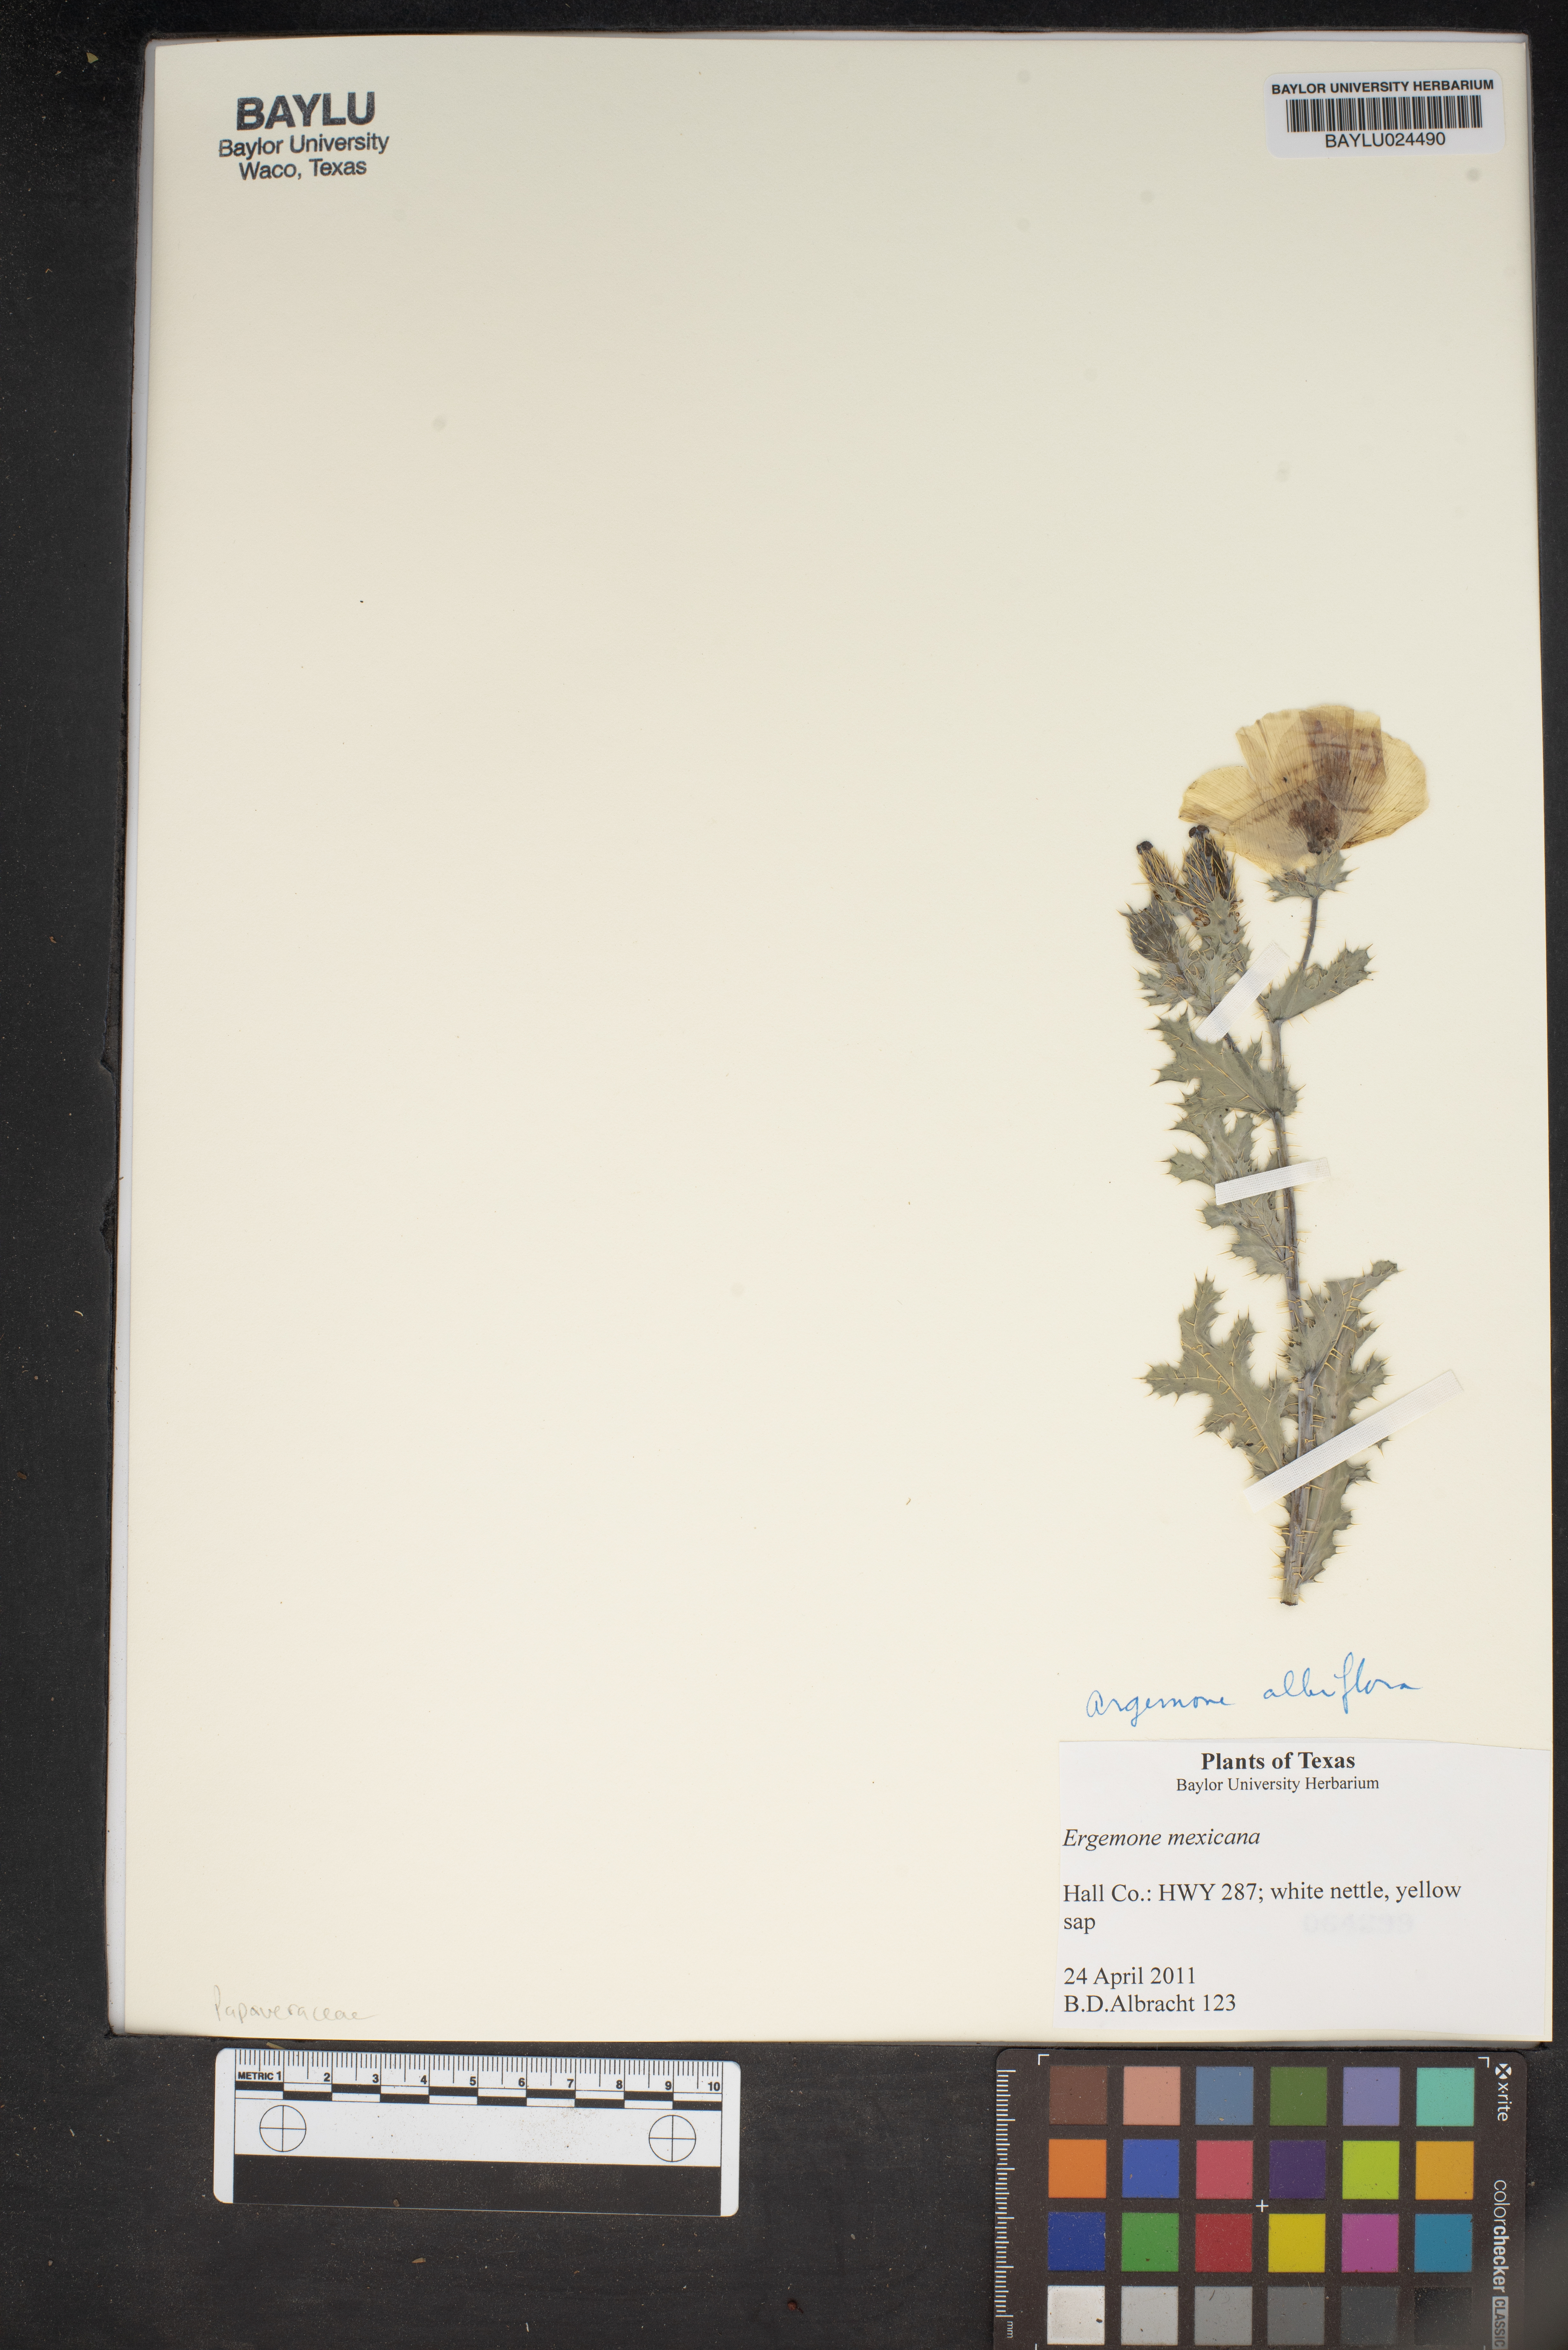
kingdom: Plantae
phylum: Tracheophyta
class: Magnoliopsida
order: Ranunculales
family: Papaveraceae
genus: Argemone
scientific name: Argemone mexicana
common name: Mexican poppy
